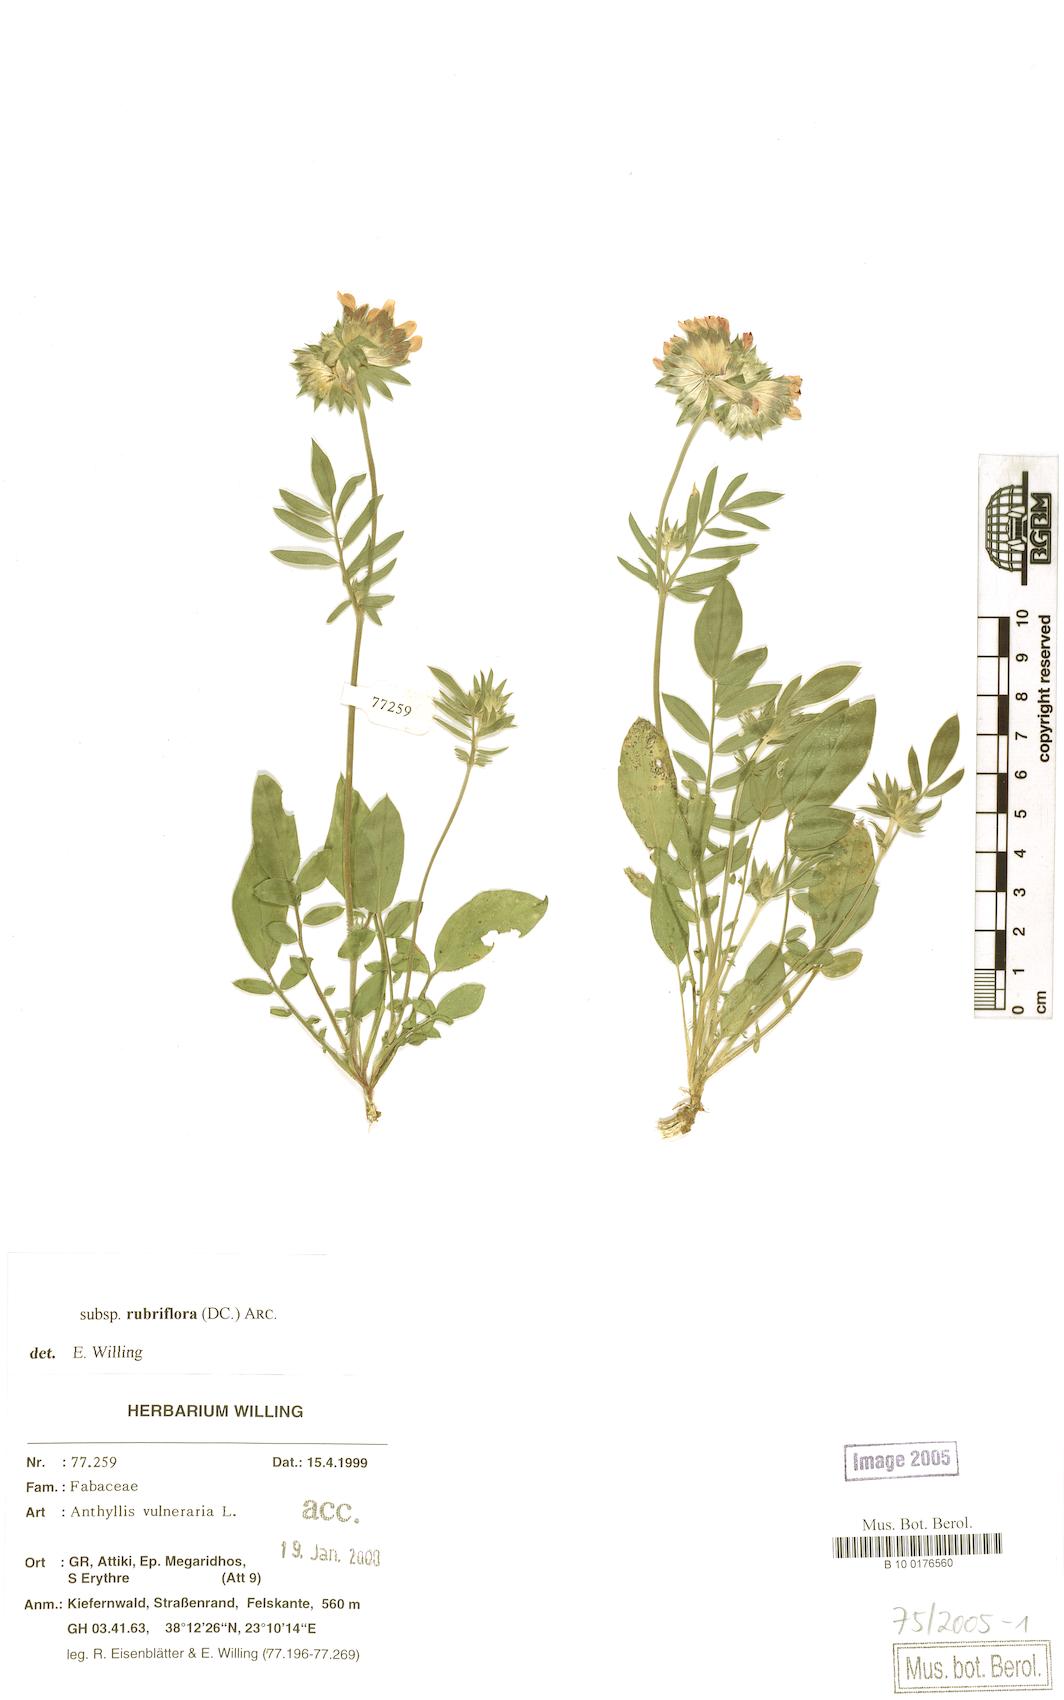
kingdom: Plantae
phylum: Tracheophyta
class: Magnoliopsida
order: Fabales
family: Fabaceae
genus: Anthyllis
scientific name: Anthyllis vulneraria
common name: Kidney vetch
